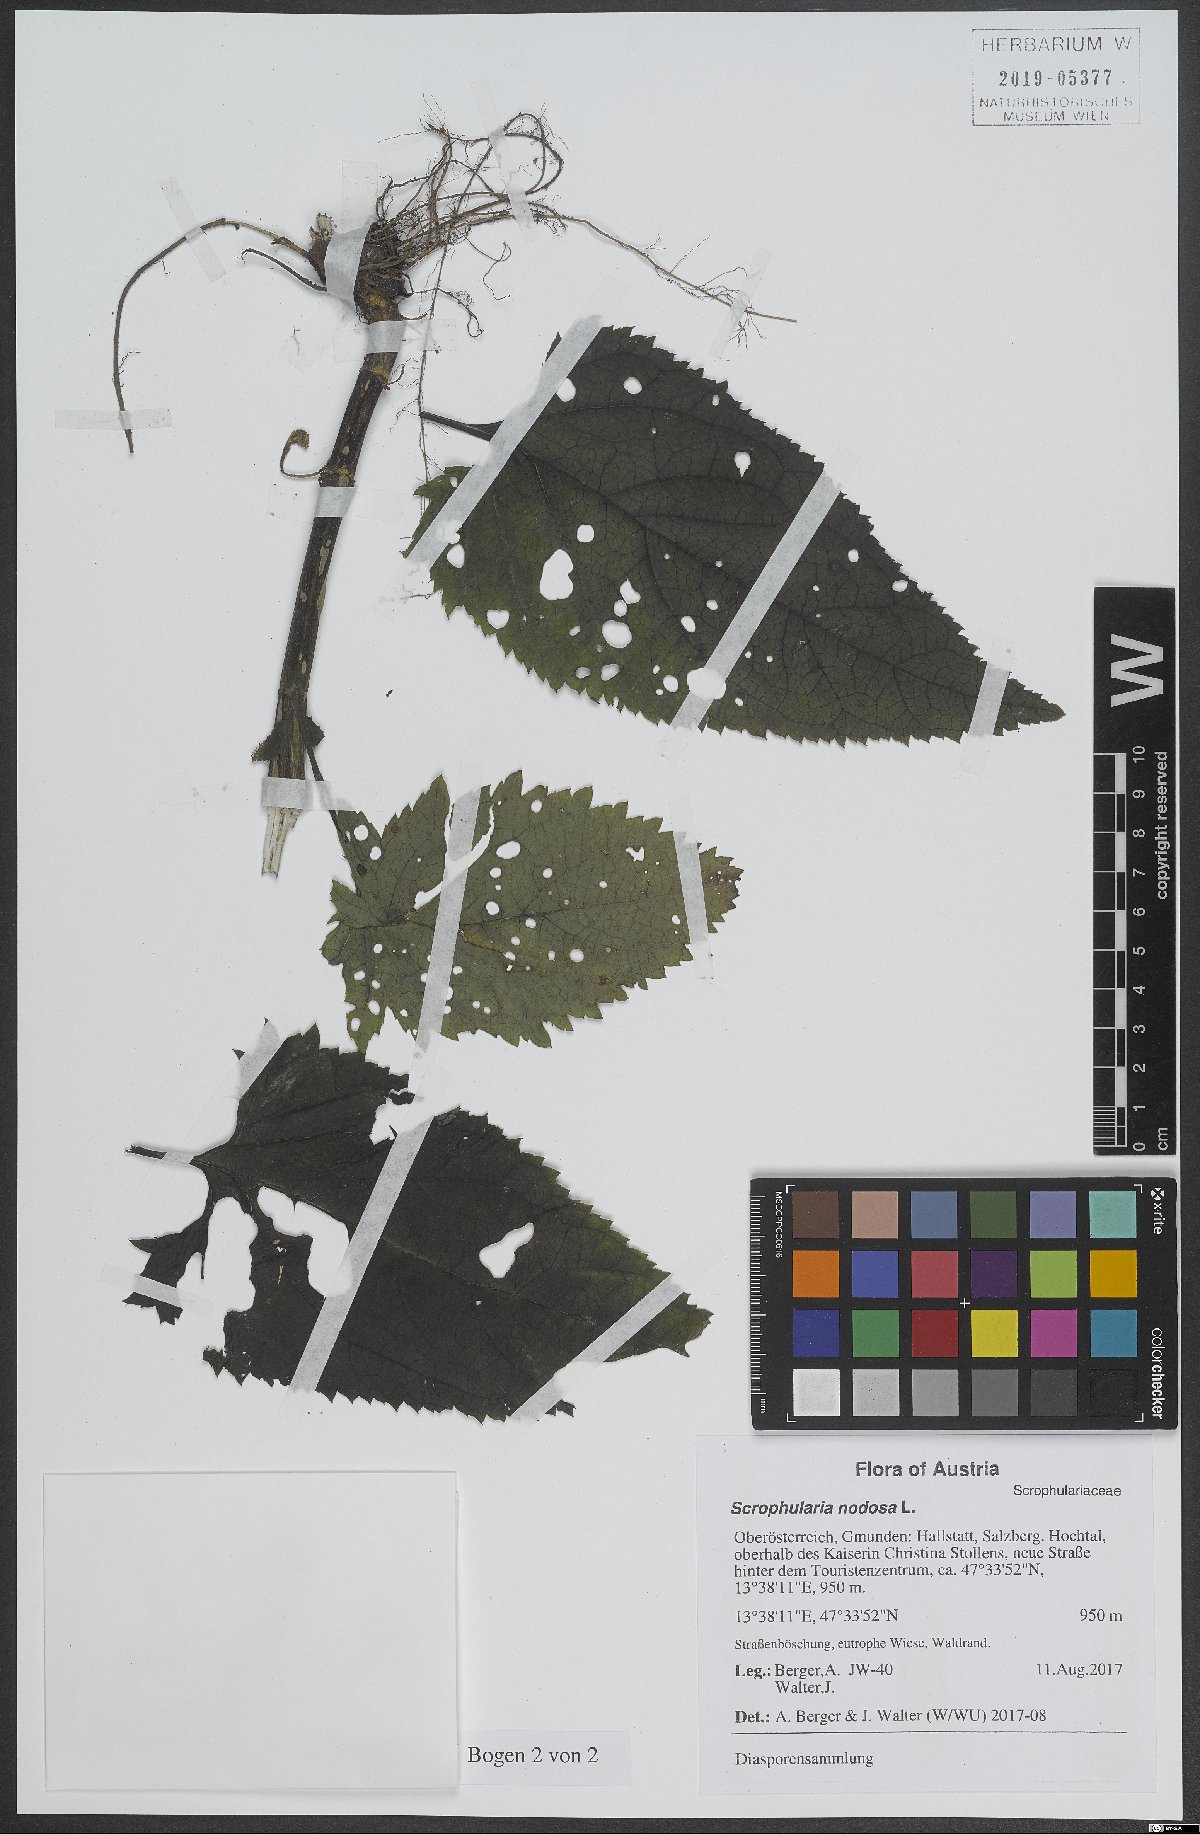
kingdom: Plantae
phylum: Tracheophyta
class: Magnoliopsida
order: Lamiales
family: Scrophulariaceae
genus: Scrophularia
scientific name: Scrophularia nodosa
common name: Common figwort
